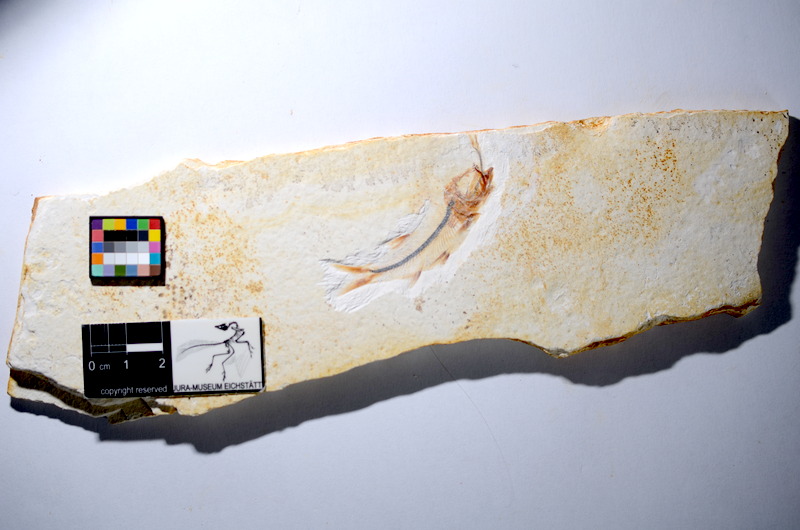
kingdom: Animalia
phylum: Chordata
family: Ascalaboidae
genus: Ebertichthys
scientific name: Ebertichthys ettlingensis
